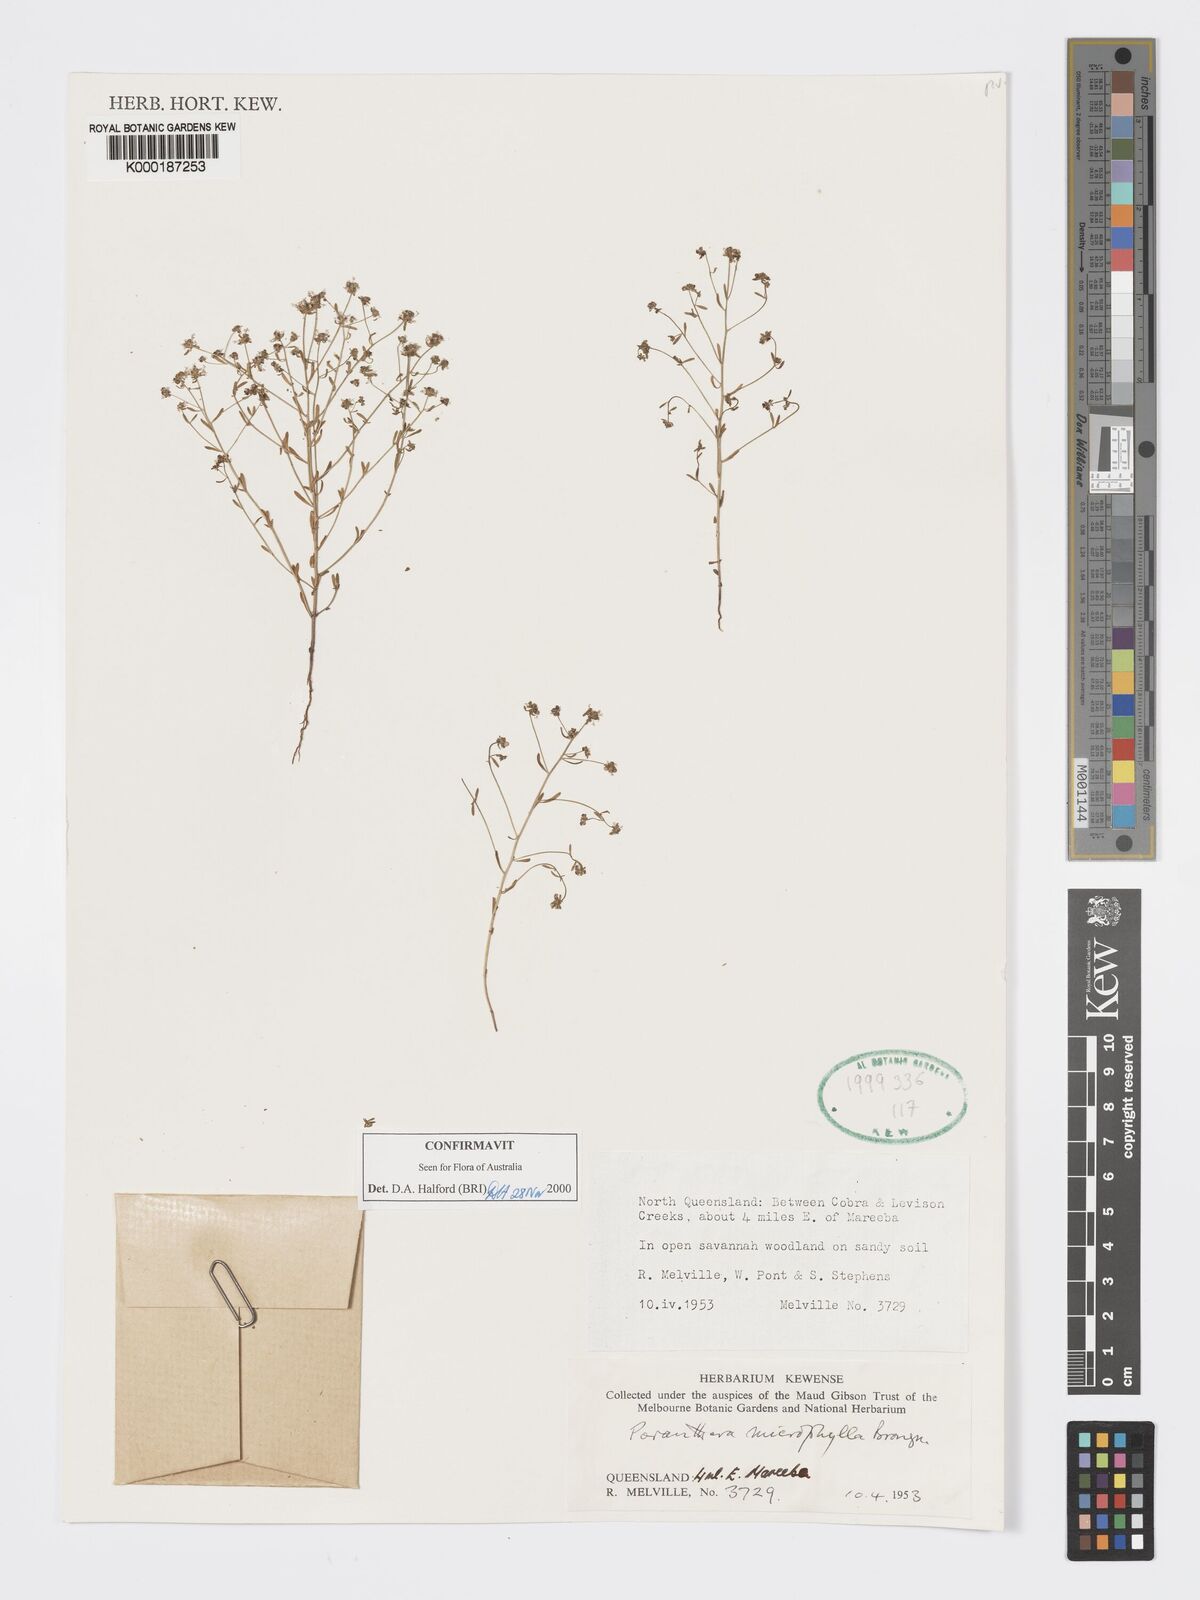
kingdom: Plantae
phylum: Tracheophyta
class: Magnoliopsida
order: Malpighiales
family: Phyllanthaceae
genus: Poranthera
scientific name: Poranthera microphylla
